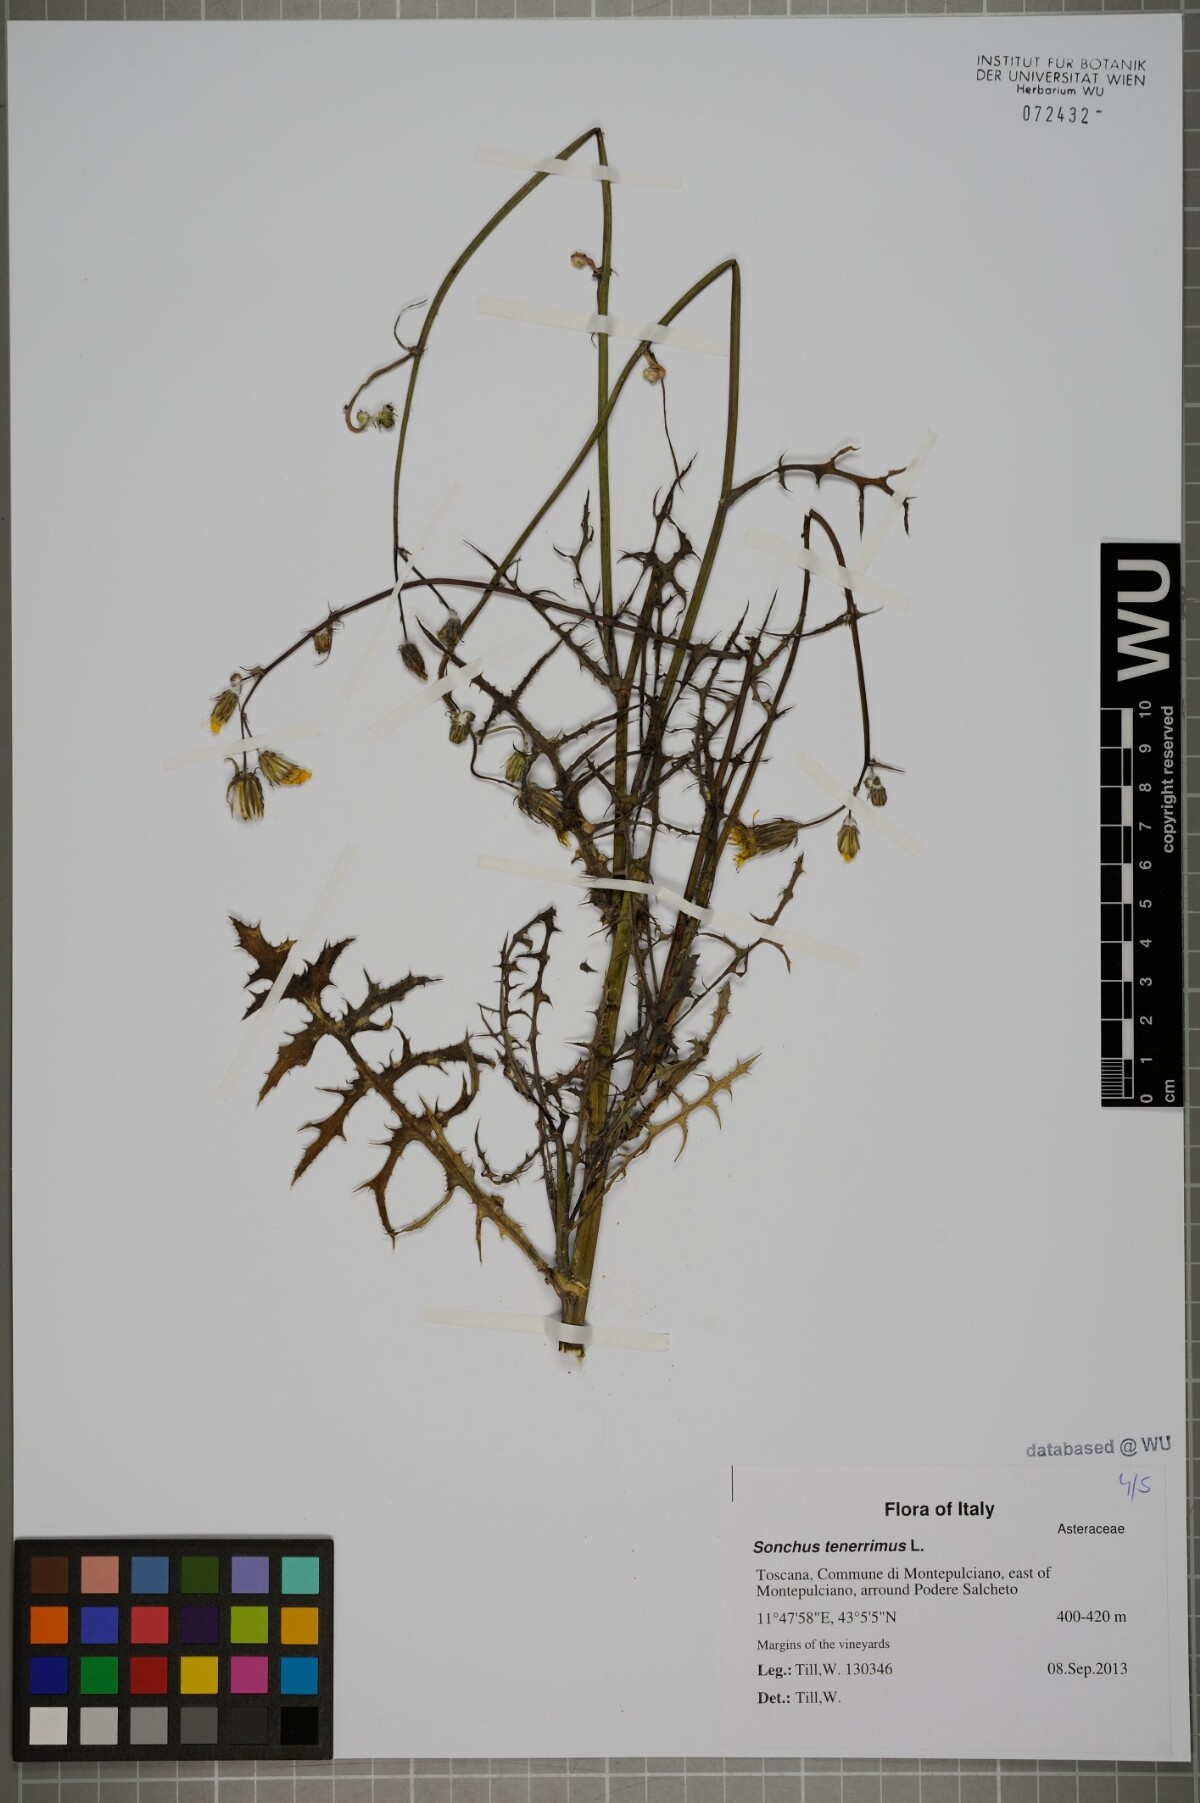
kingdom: Plantae
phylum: Tracheophyta
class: Magnoliopsida
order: Asterales
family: Asteraceae
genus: Sonchus
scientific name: Sonchus tenerrimus
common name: Clammy sowthistle
